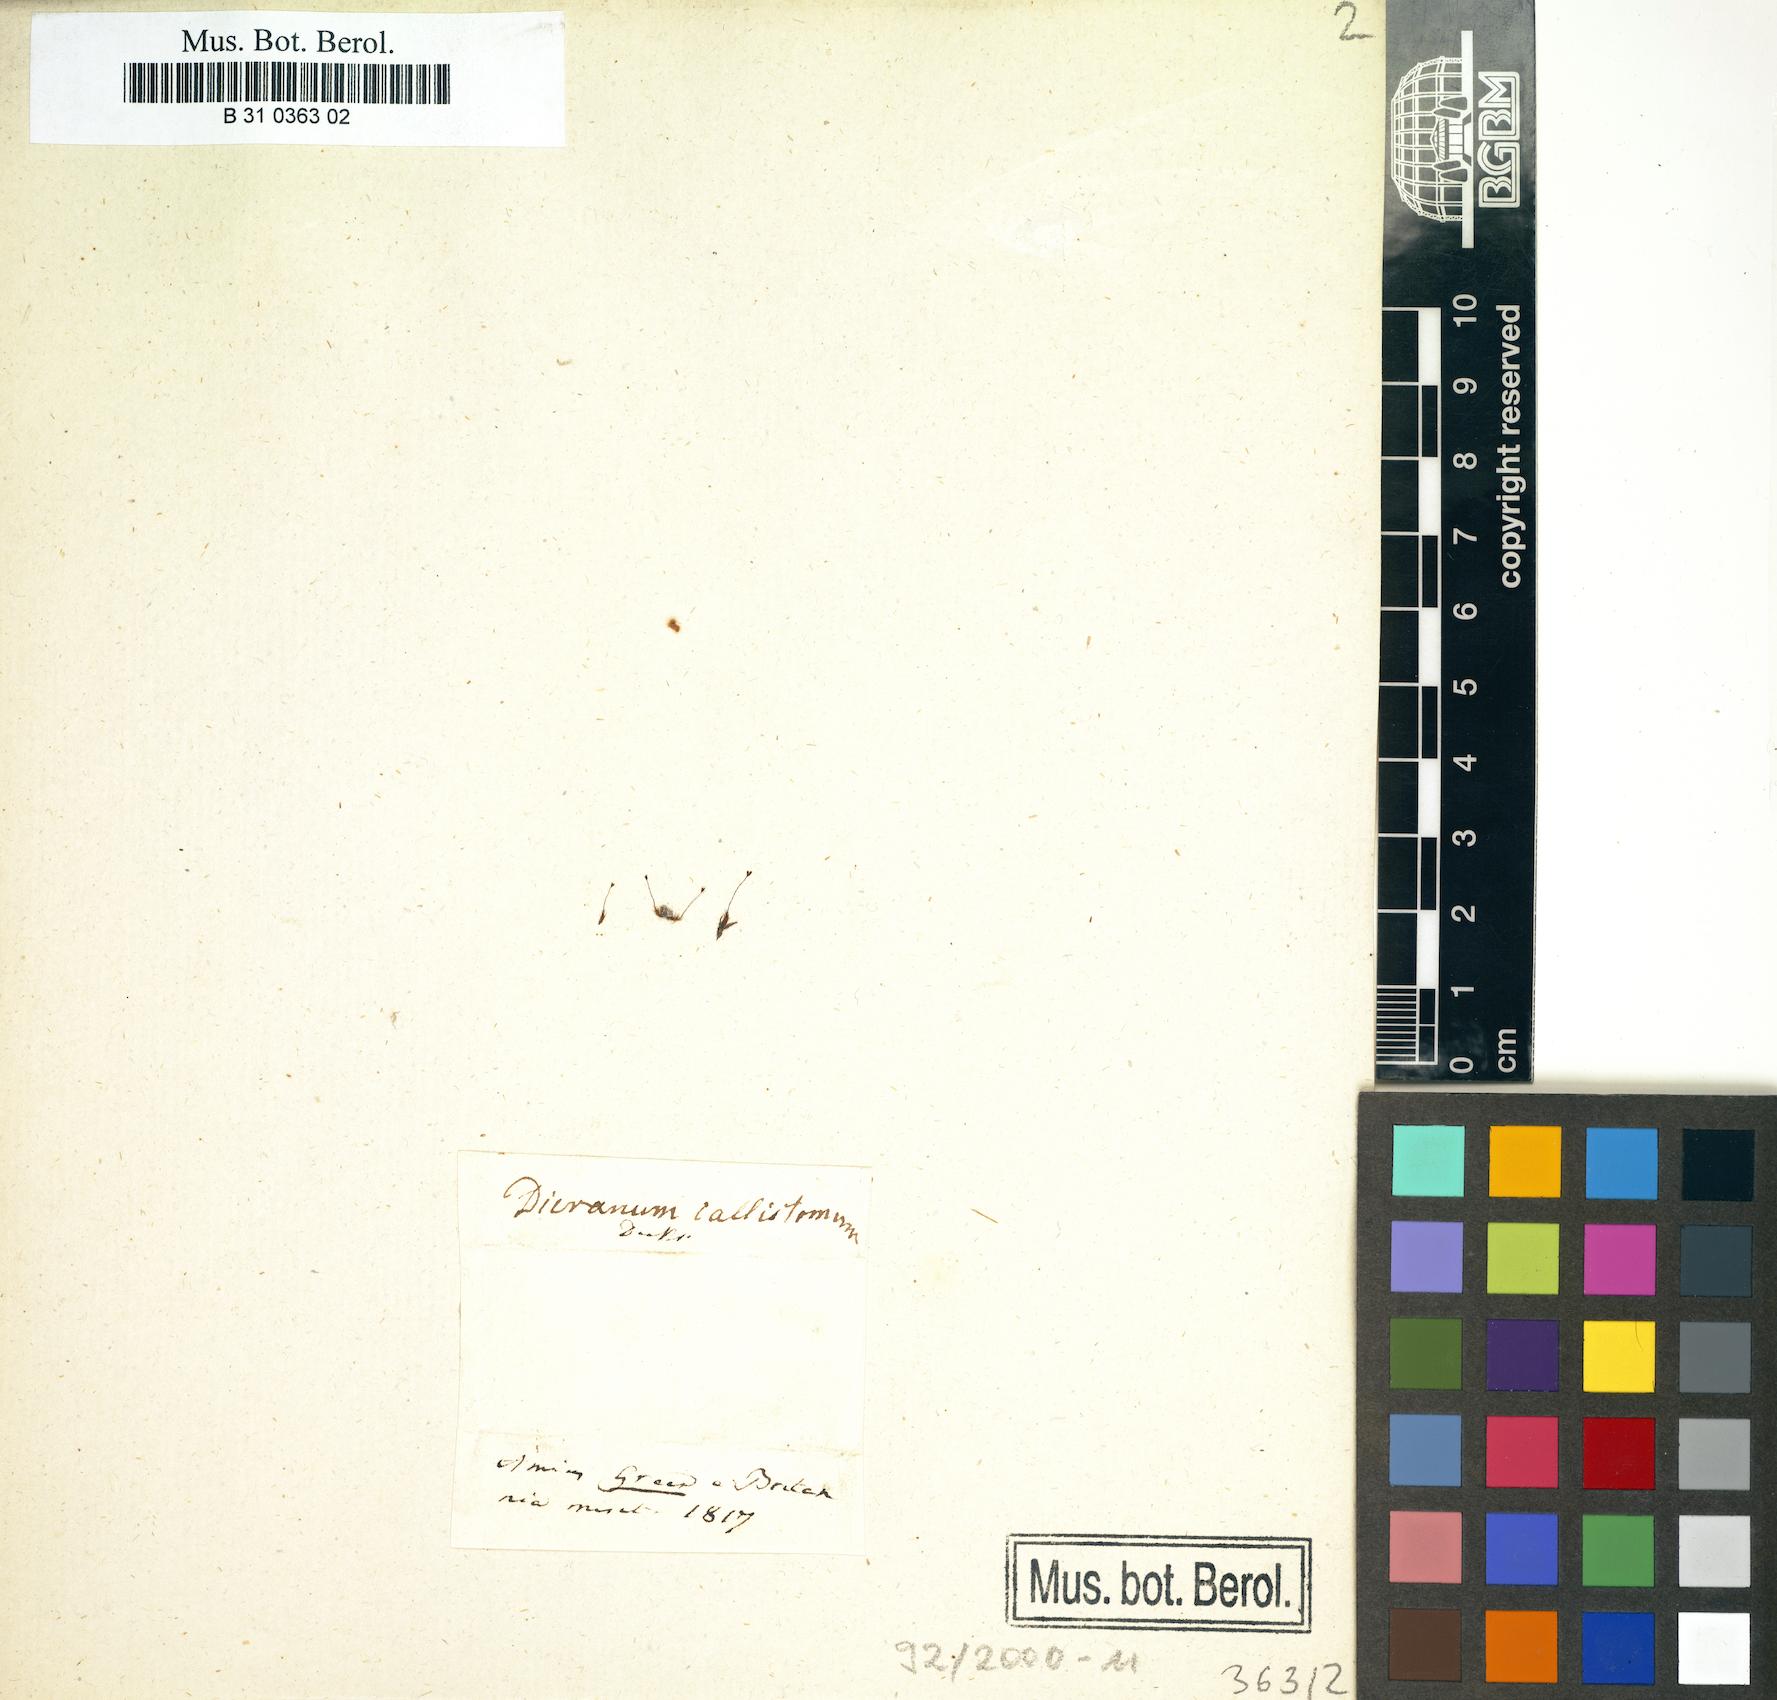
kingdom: Plantae
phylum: Bryophyta
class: Bryopsida
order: Dicranales
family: Dicranaceae
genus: Dicranum
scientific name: Dicranum undulatum
